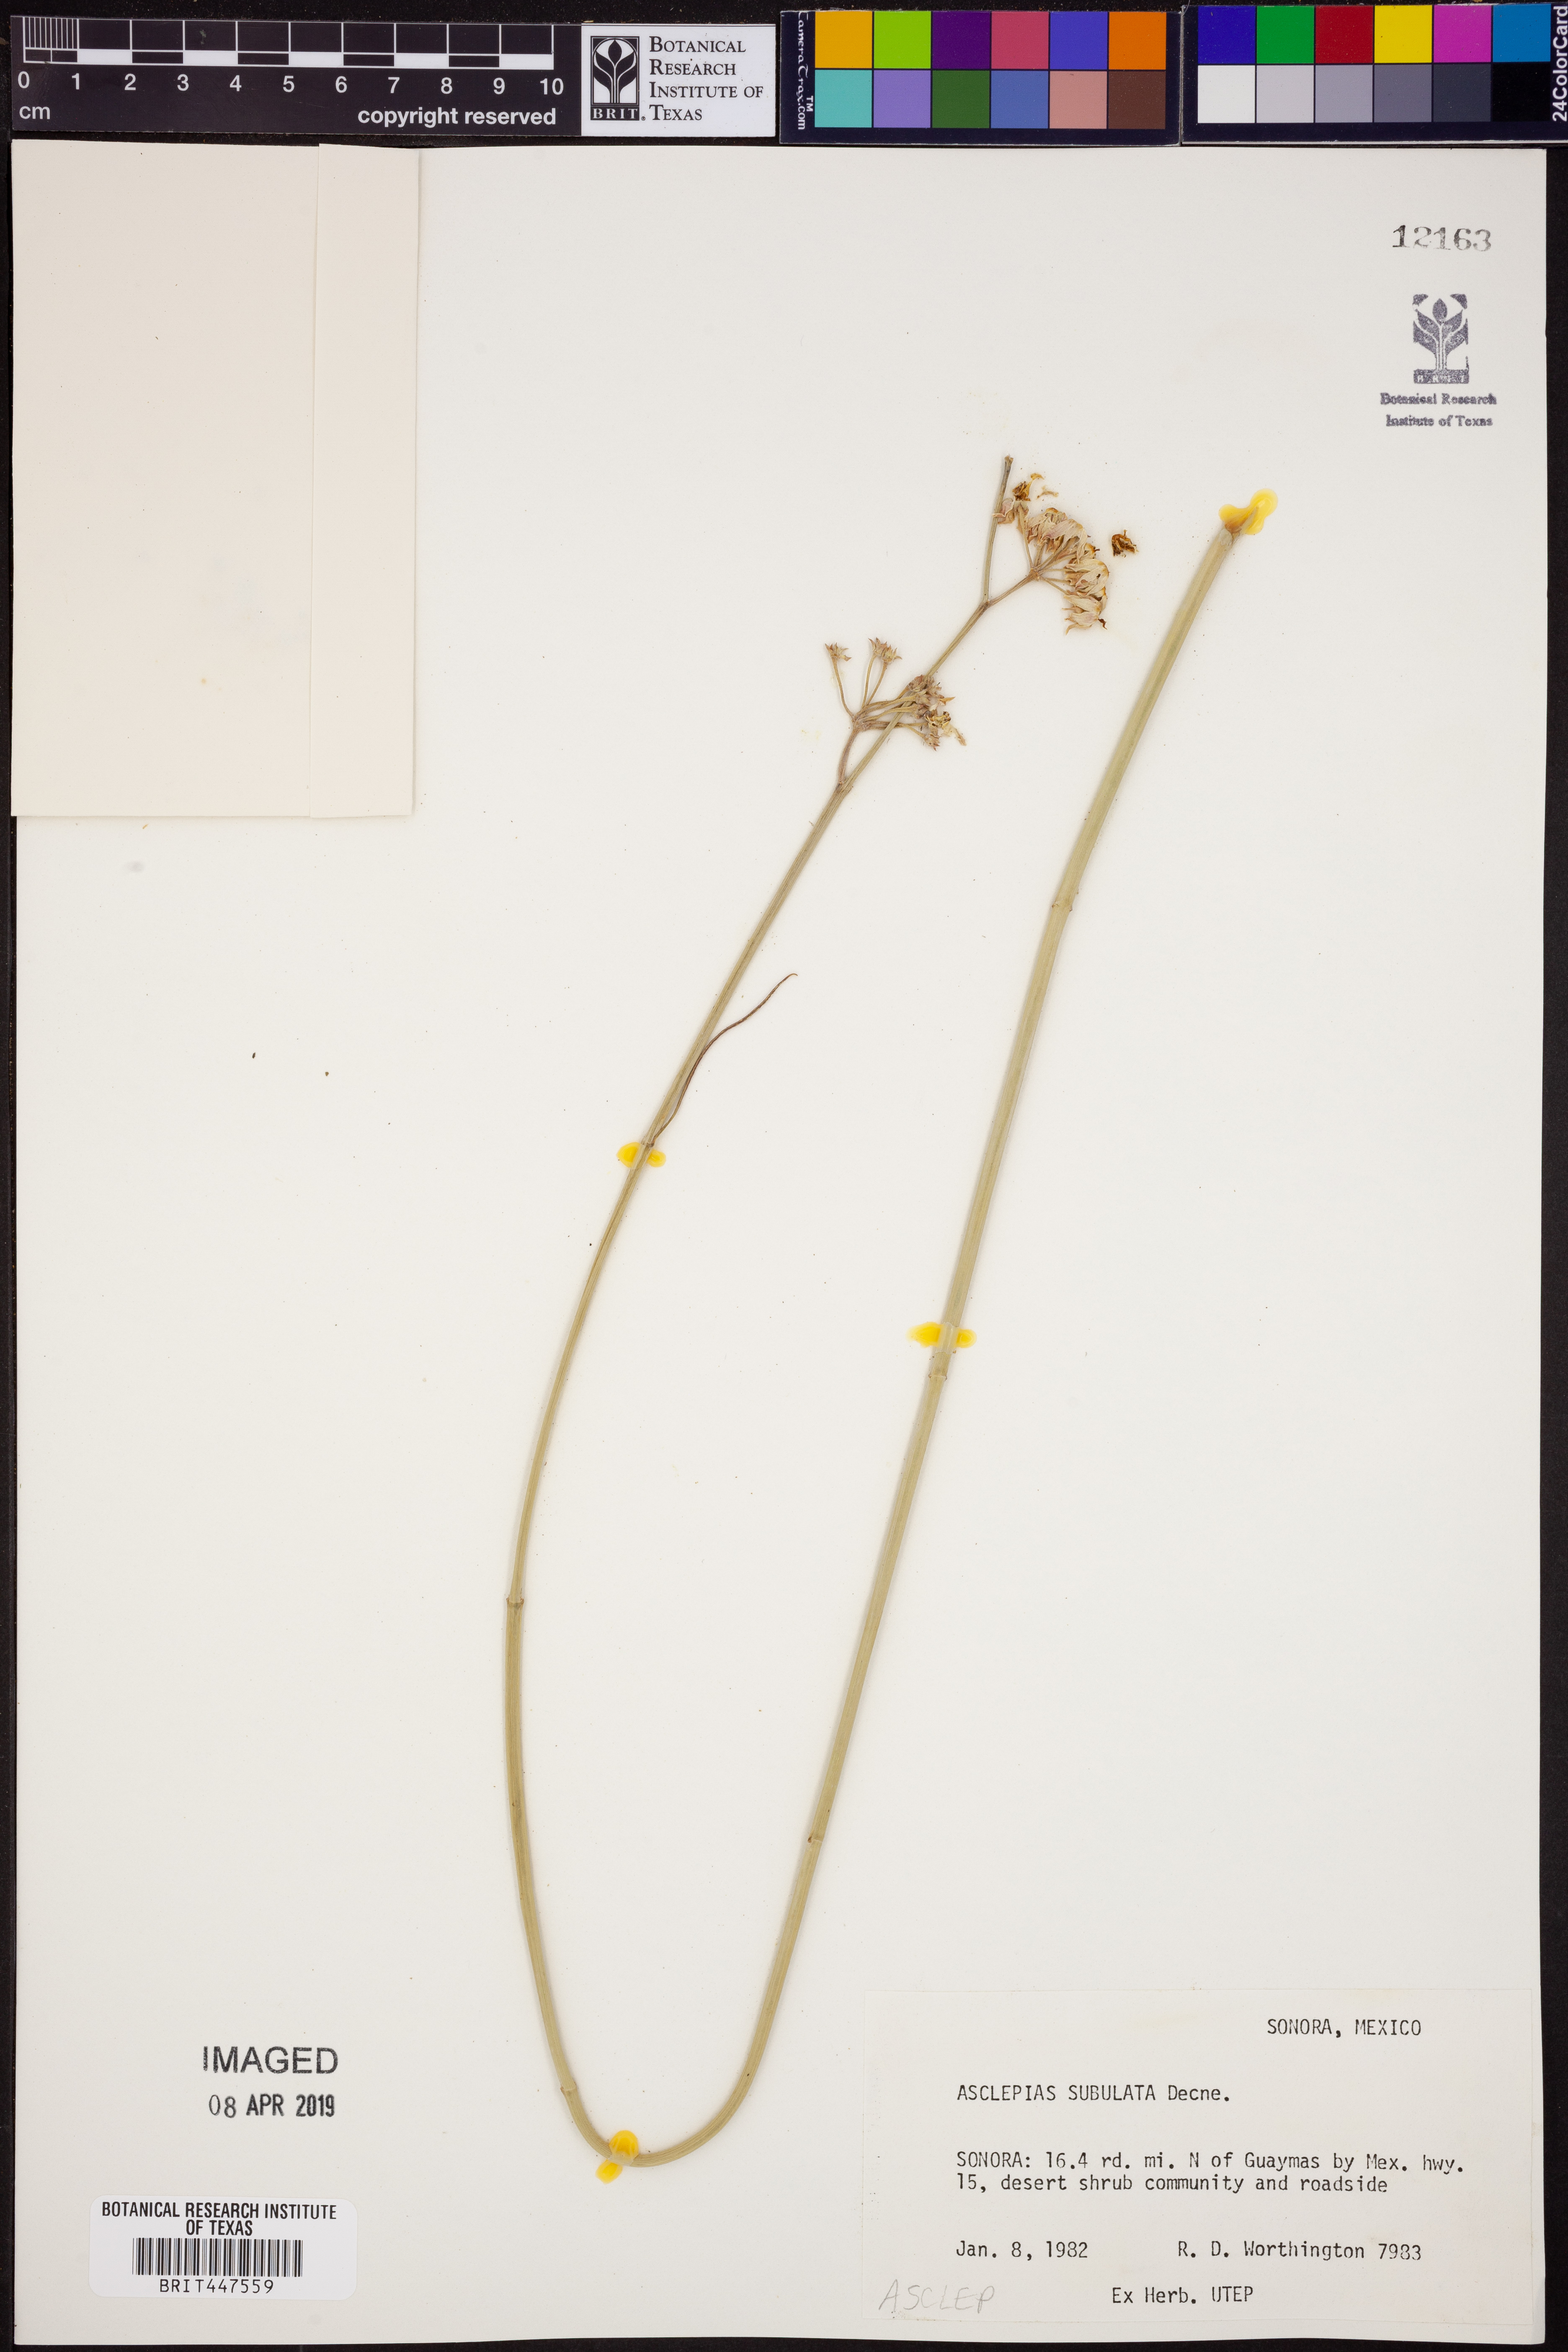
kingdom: Plantae
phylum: Tracheophyta
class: Magnoliopsida
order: Gentianales
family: Apocynaceae
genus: Asclepias
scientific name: Asclepias subulata
